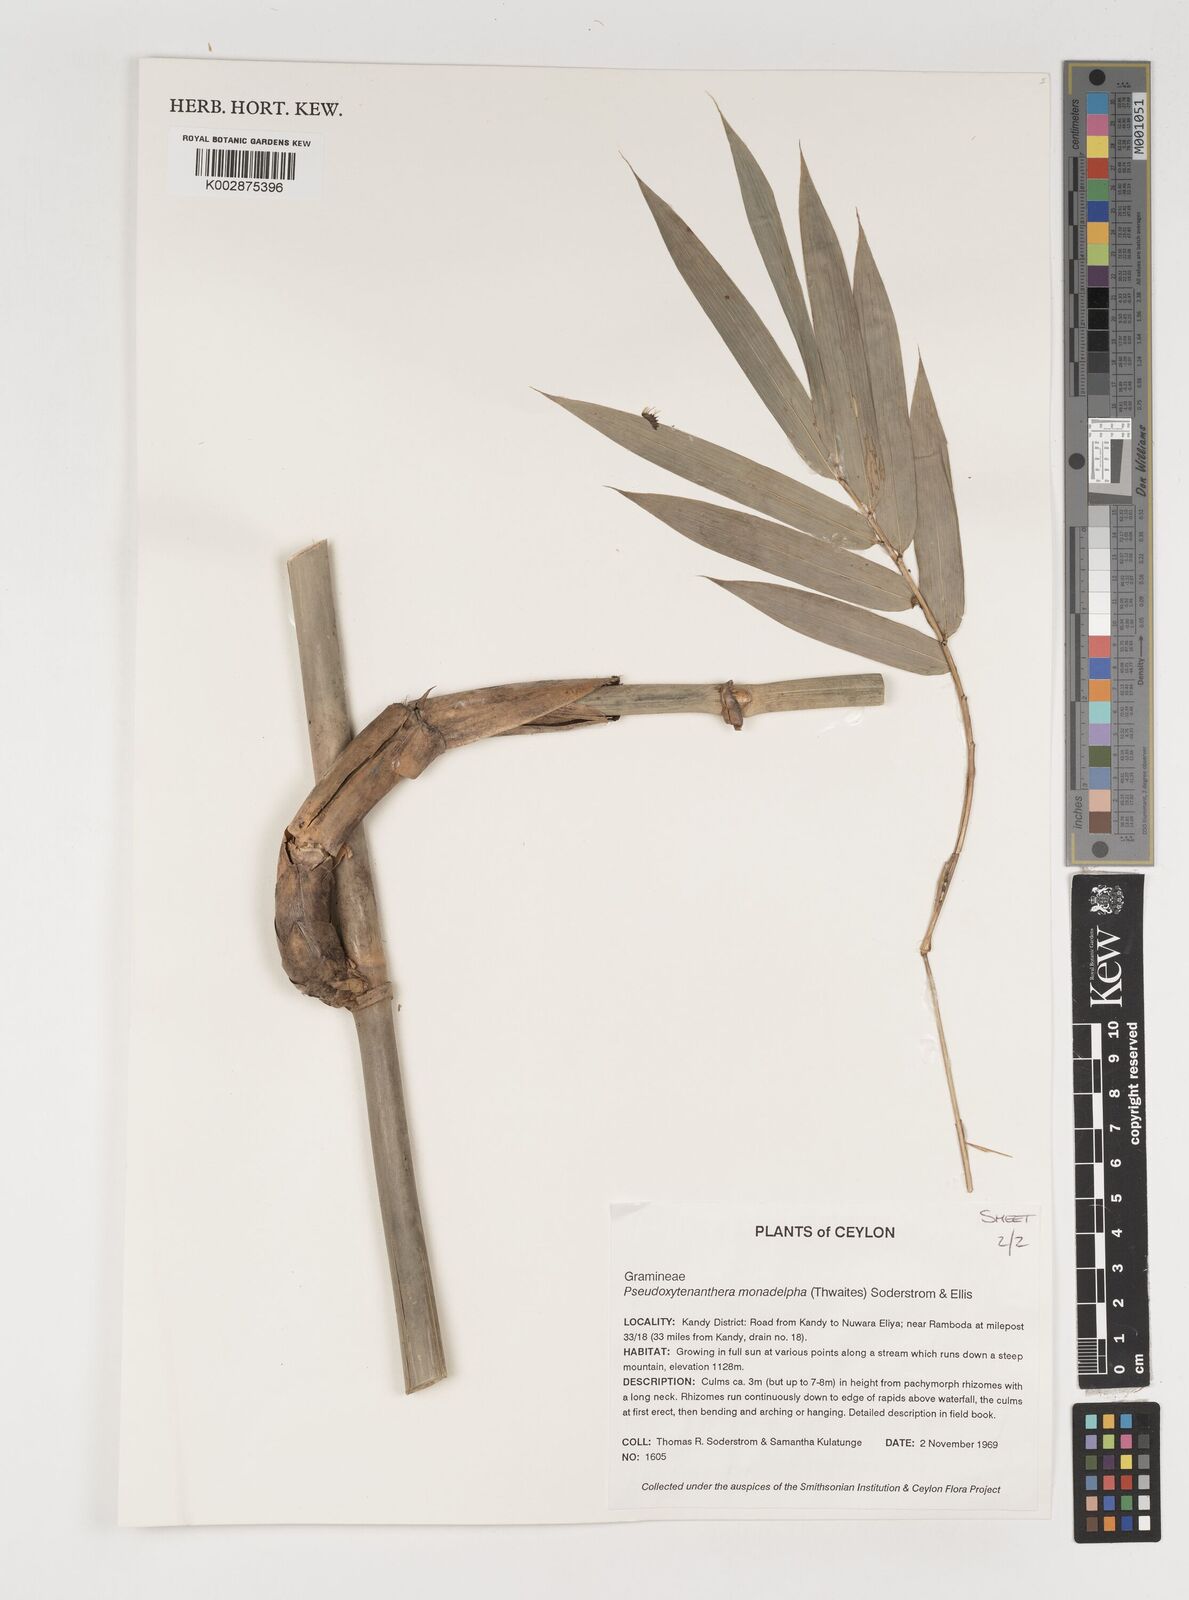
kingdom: Plantae
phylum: Tracheophyta
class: Liliopsida
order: Poales
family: Poaceae
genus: Dendrocalamus
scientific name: Dendrocalamus
